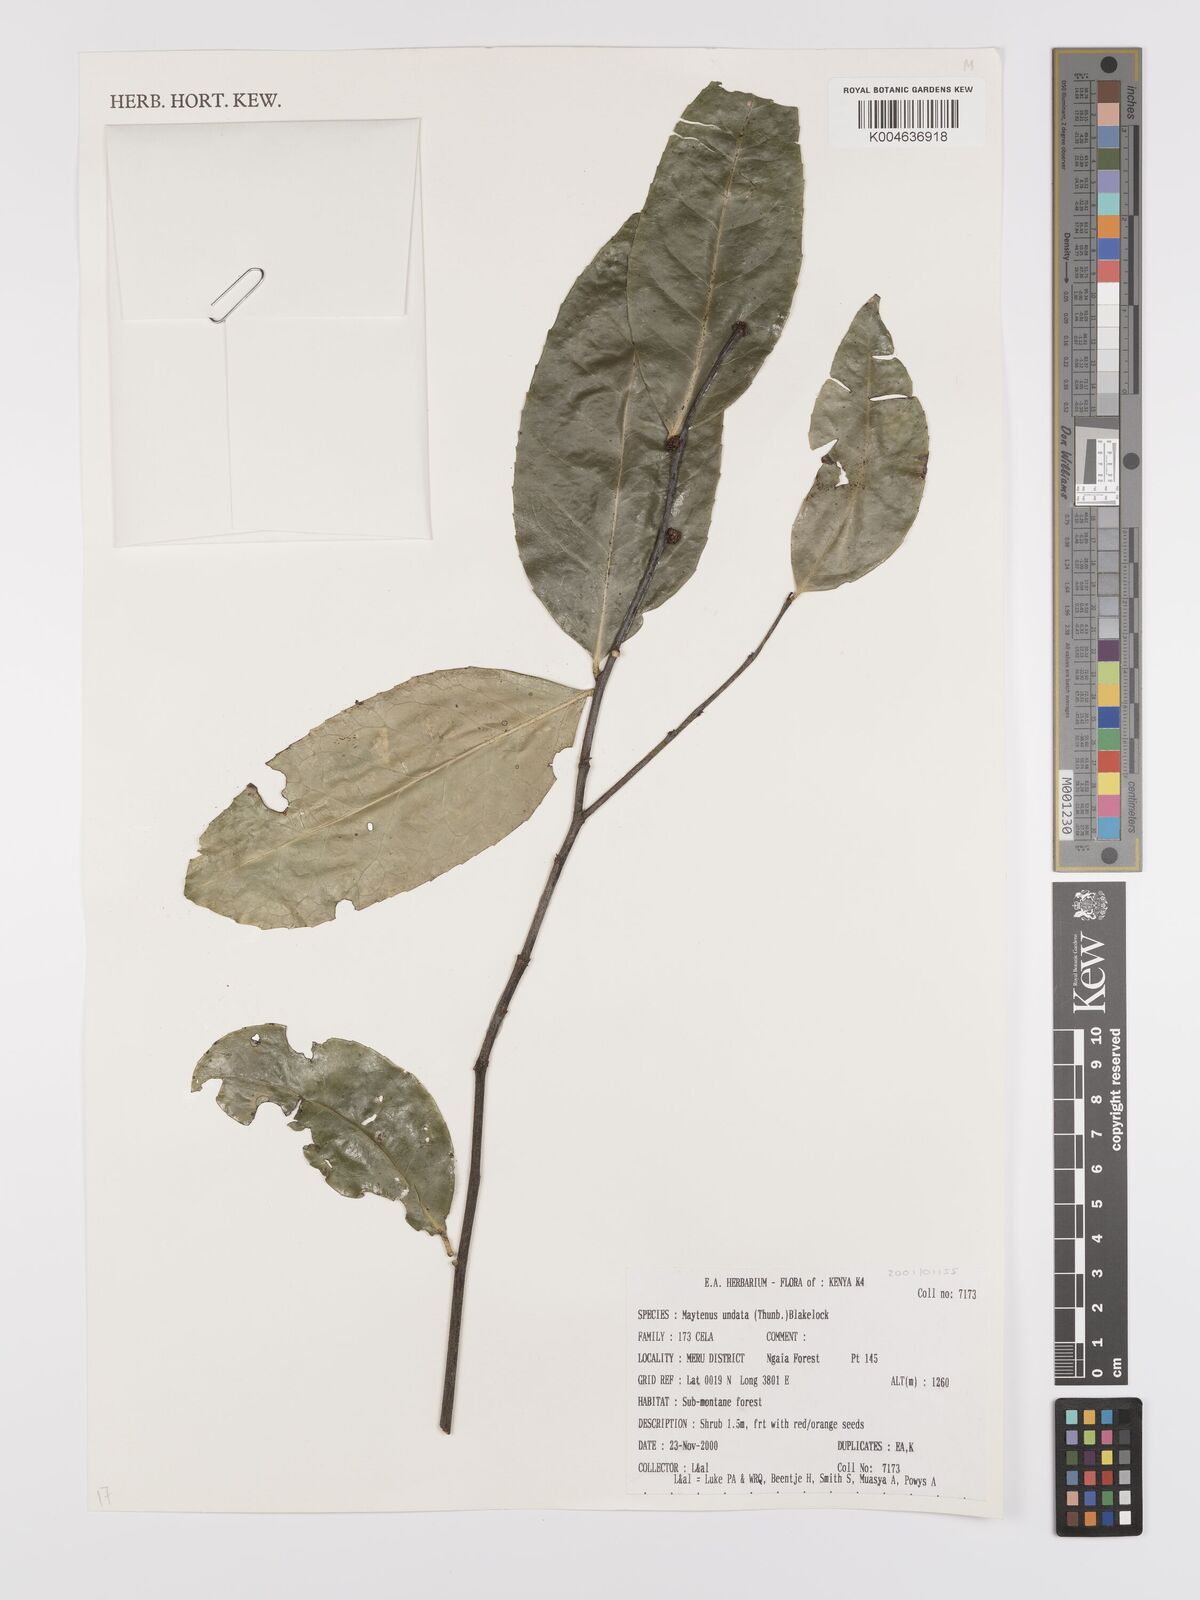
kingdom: Plantae
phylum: Tracheophyta
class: Magnoliopsida
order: Celastrales
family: Celastraceae
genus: Gymnosporia
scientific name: Gymnosporia undata
